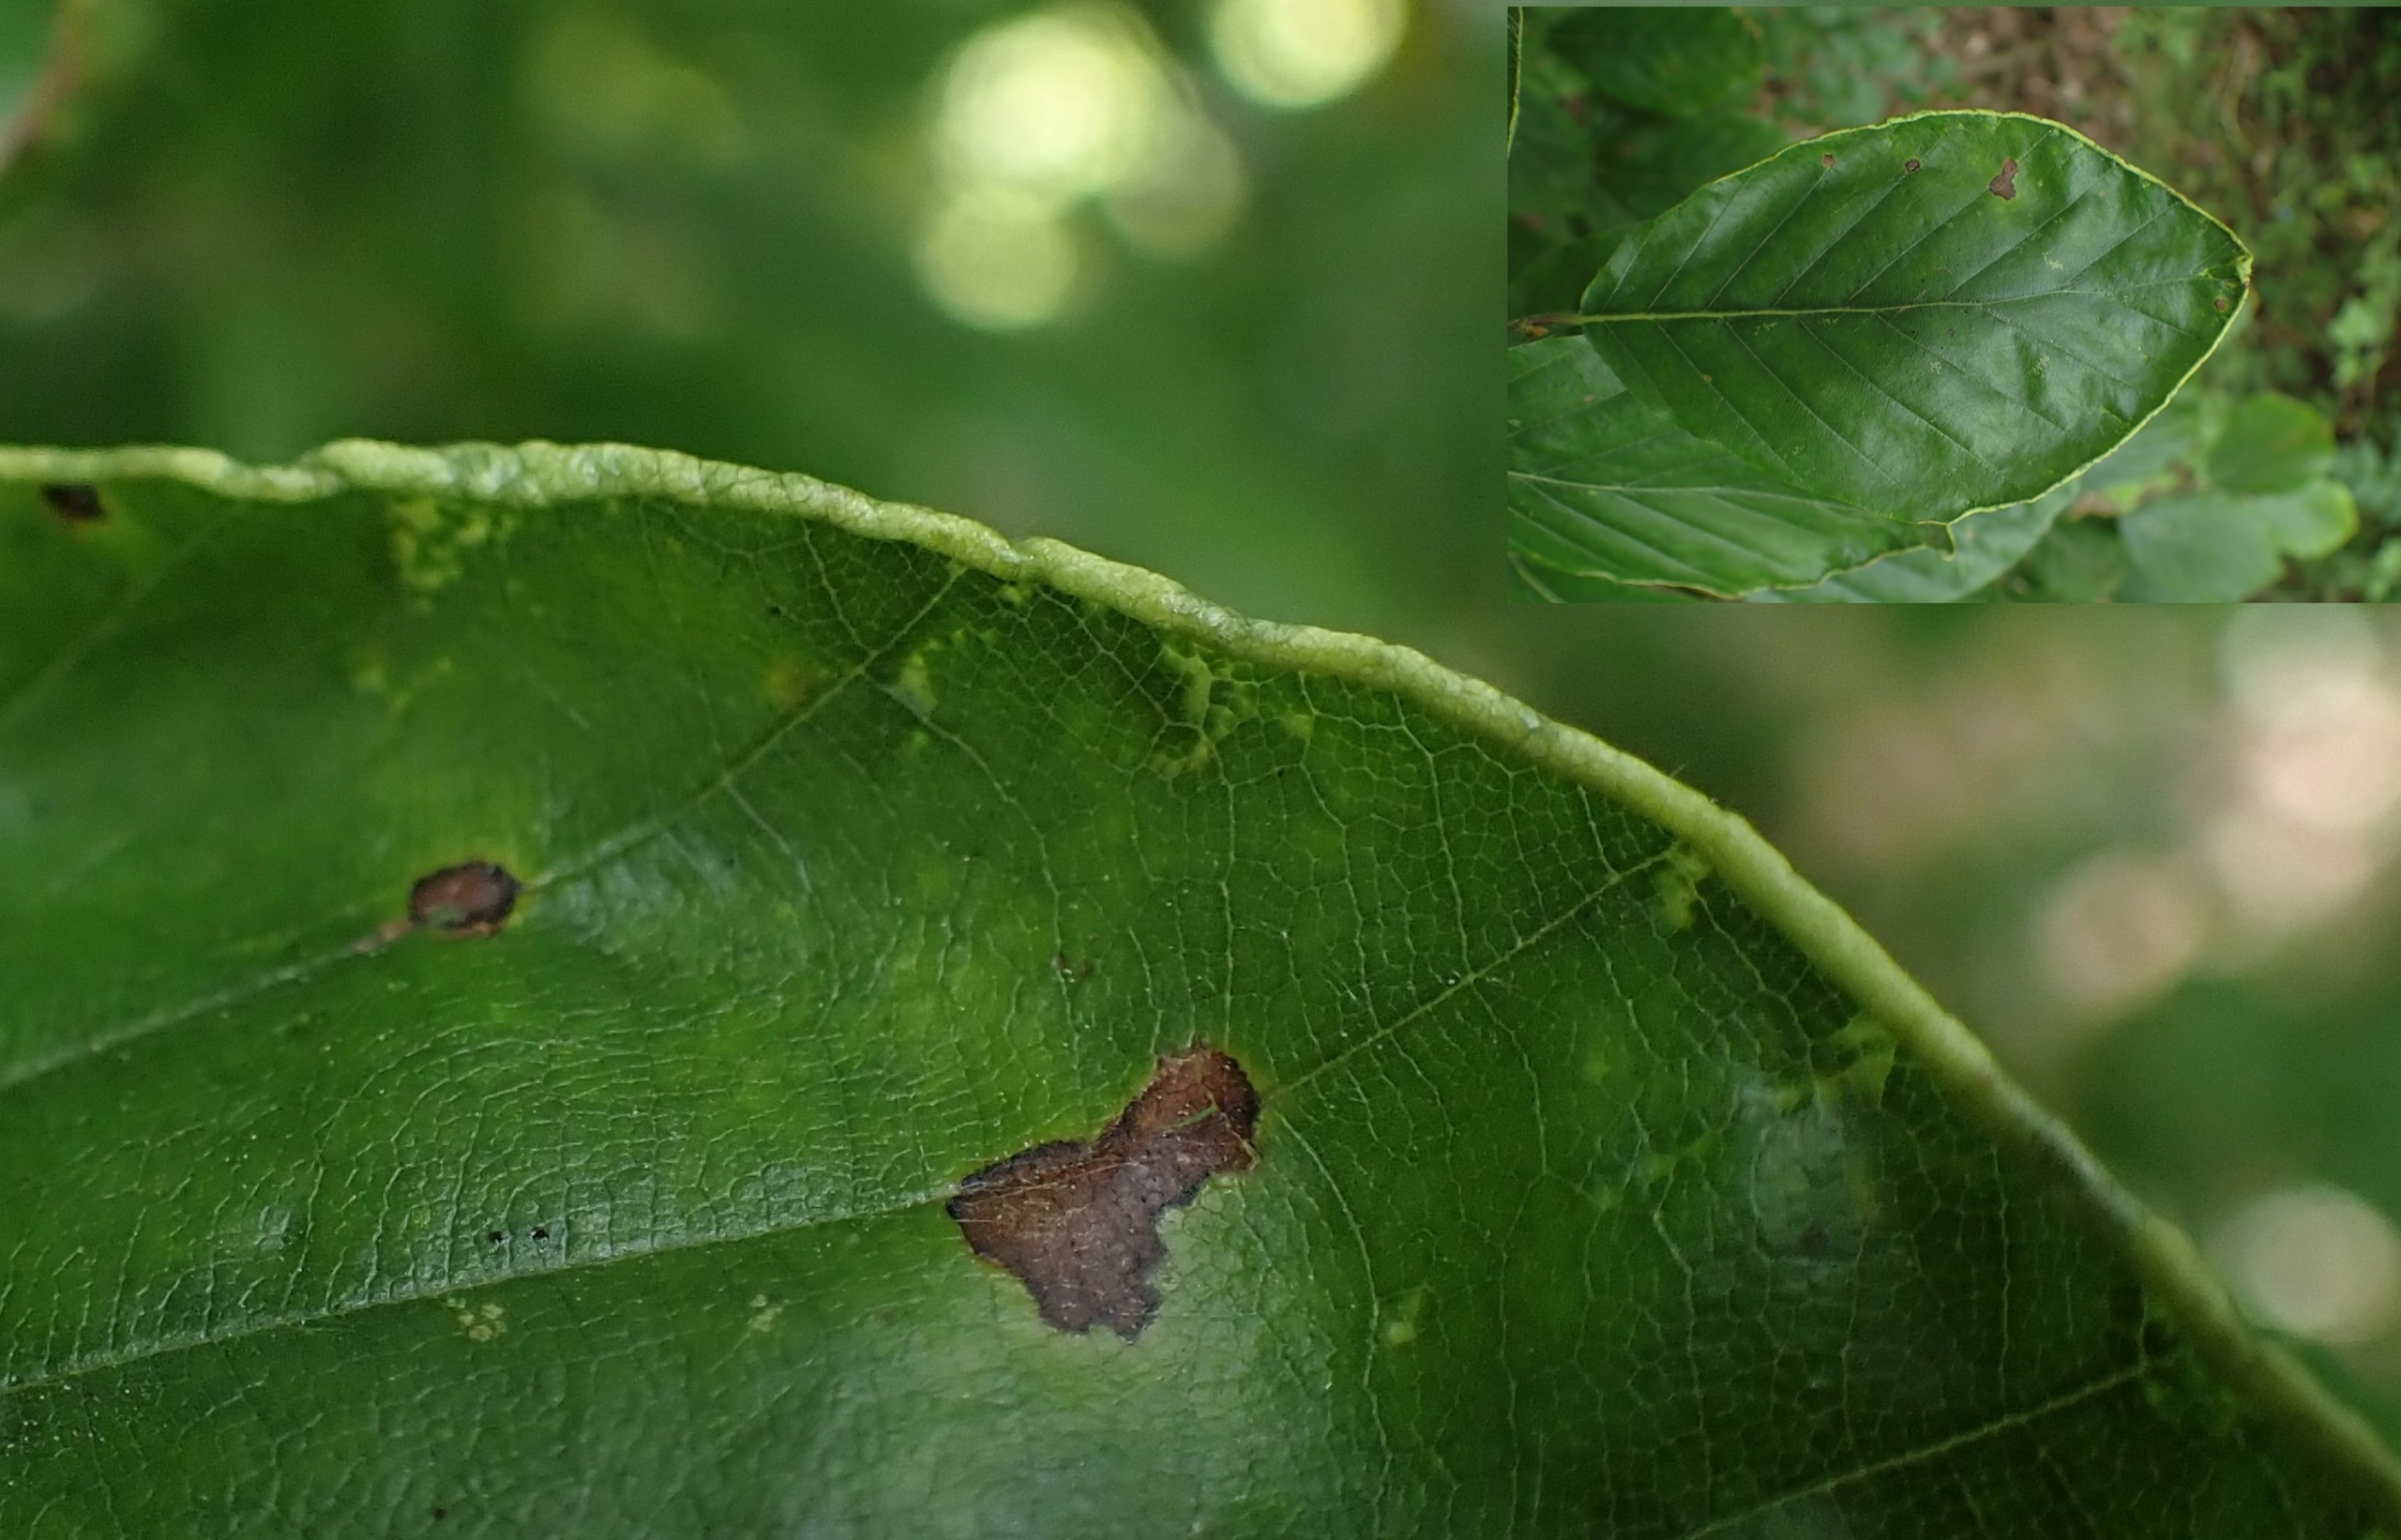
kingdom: Animalia
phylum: Arthropoda
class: Arachnida
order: Trombidiformes
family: Eriophyidae
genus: Acalitus
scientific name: Acalitus stenaspis
